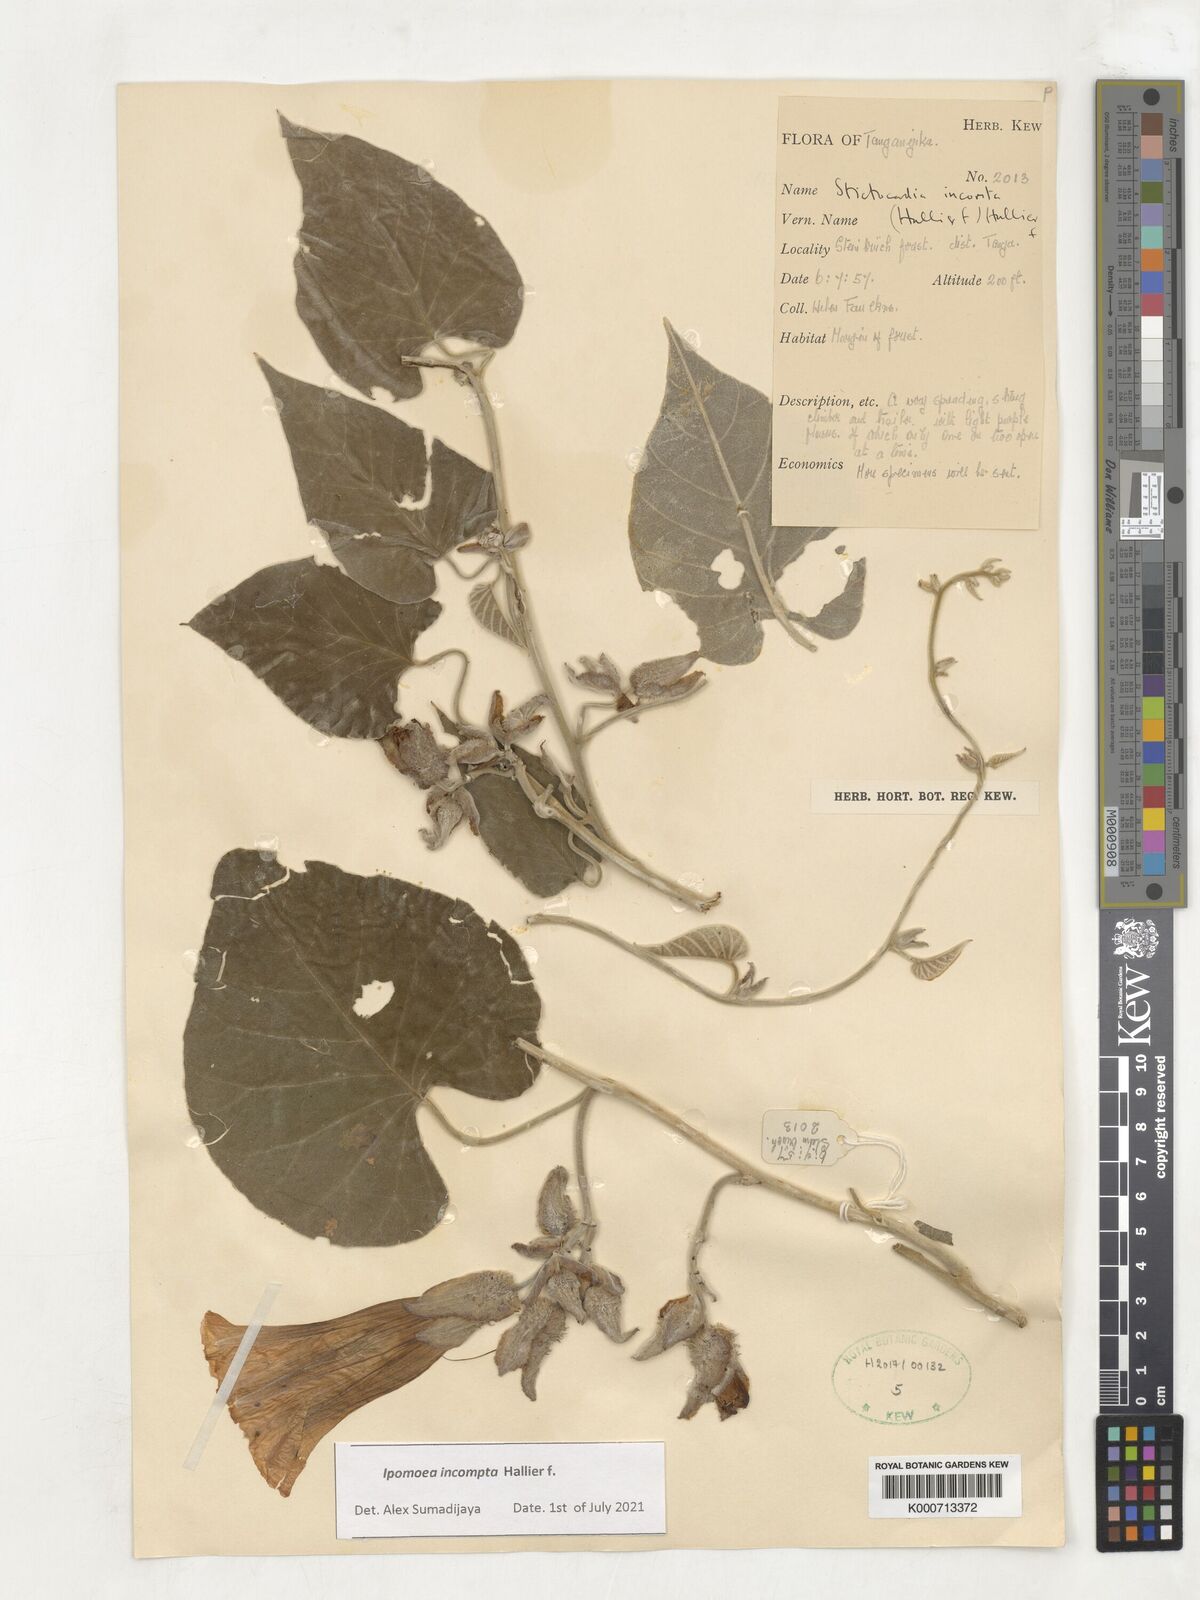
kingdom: Plantae
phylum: Tracheophyta
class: Magnoliopsida
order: Solanales
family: Convolvulaceae
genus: Stictocardia
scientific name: Stictocardia incomta
